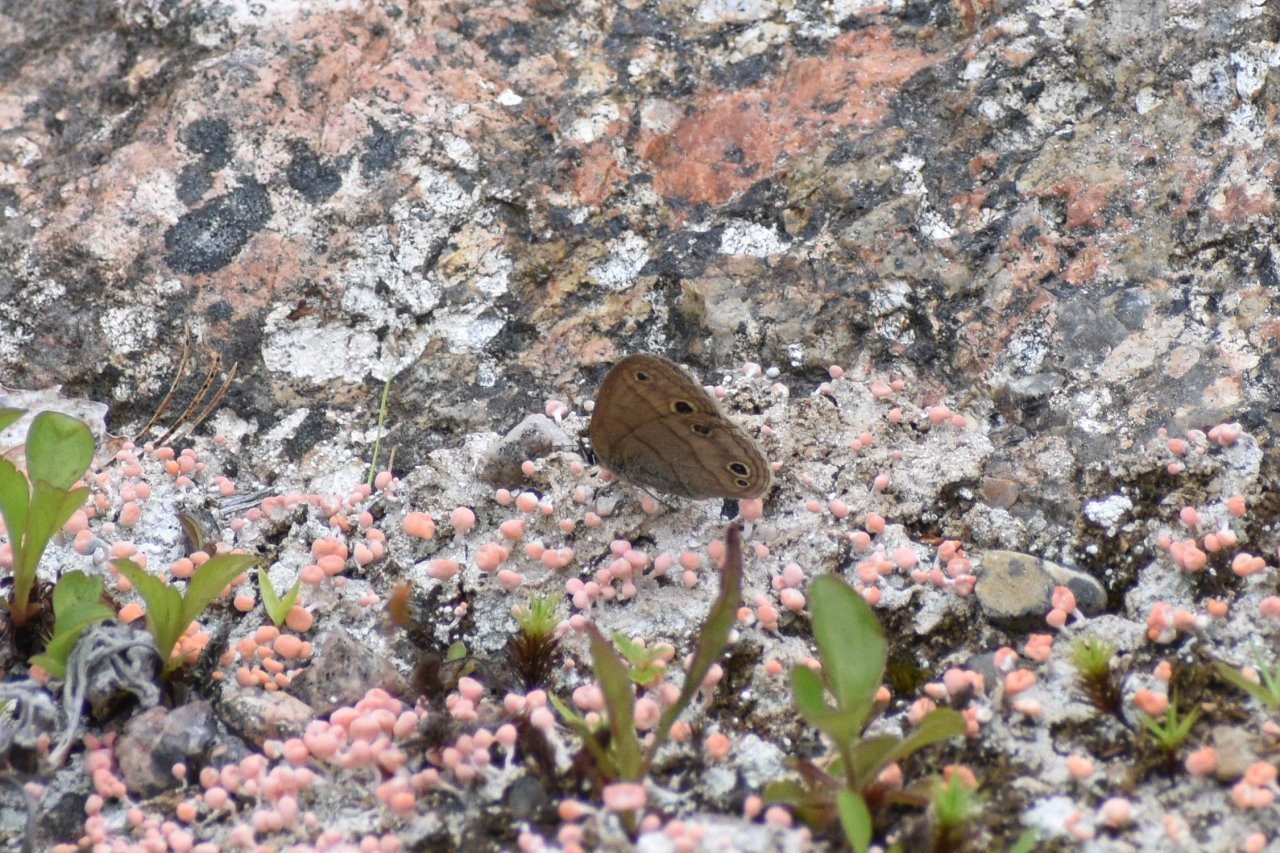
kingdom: Animalia
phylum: Arthropoda
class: Insecta
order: Lepidoptera
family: Nymphalidae
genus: Euptychia
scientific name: Euptychia cymela
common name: Little Wood Satyr
